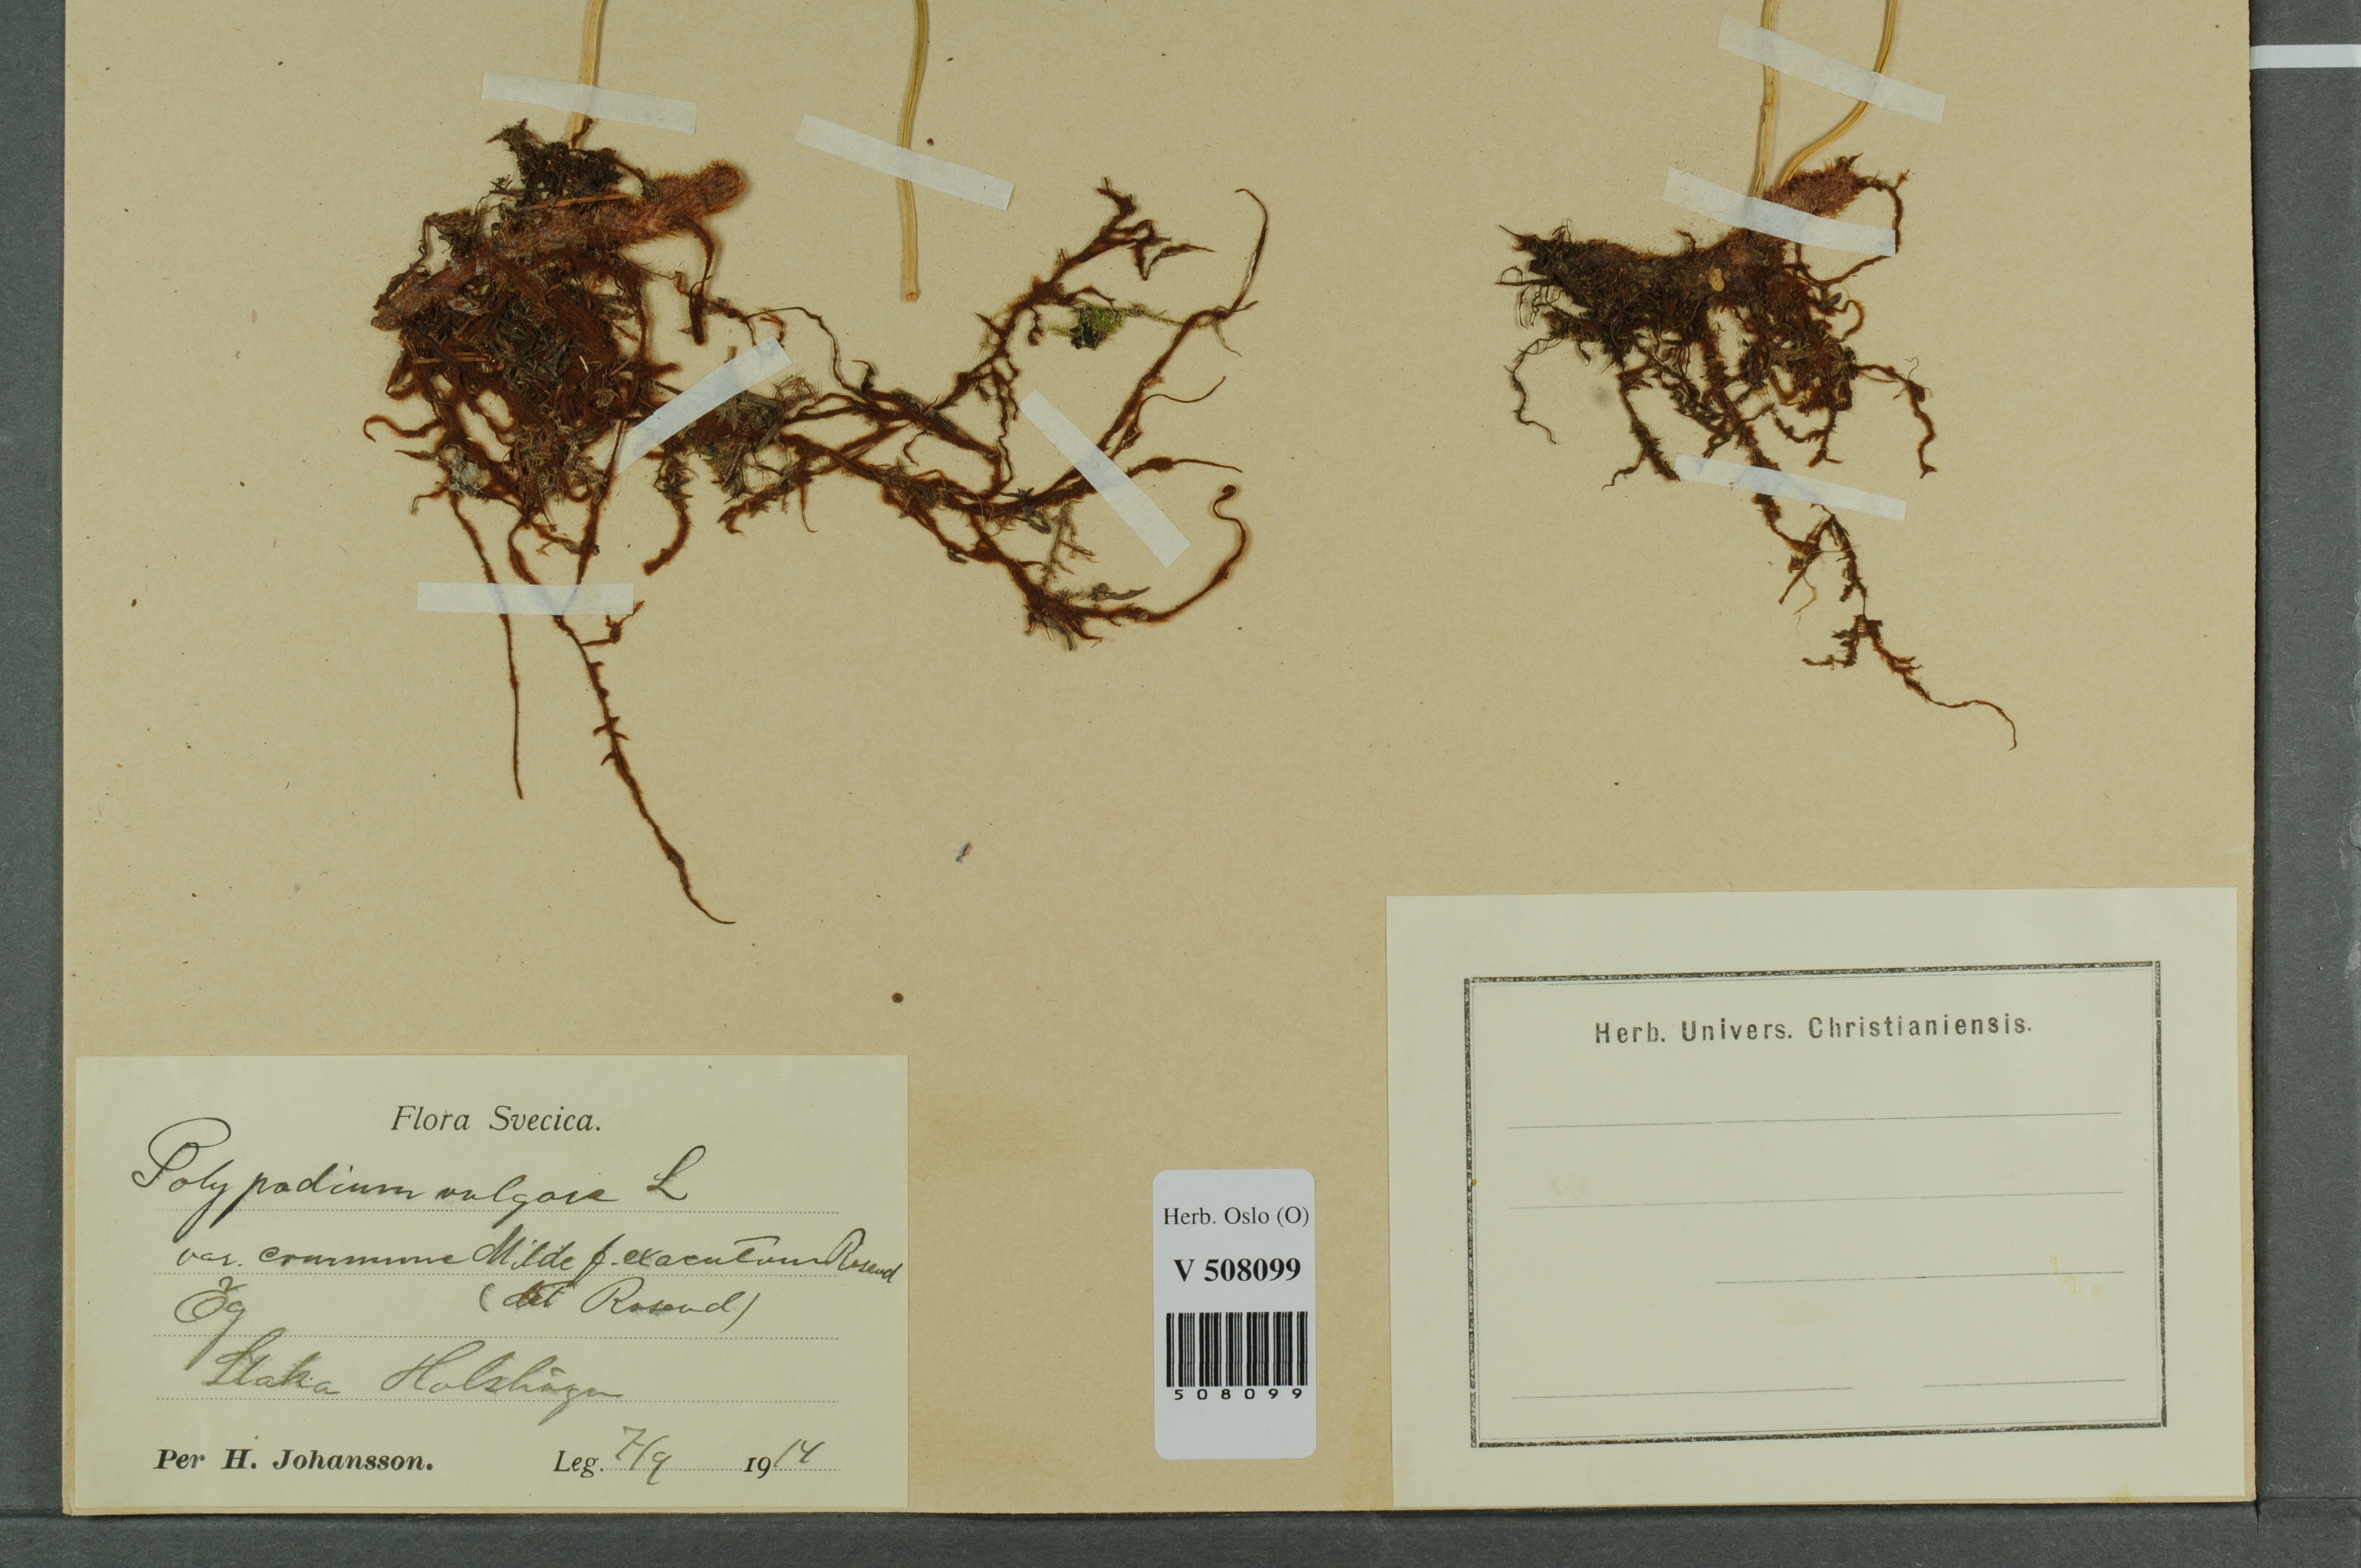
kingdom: Plantae
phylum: Tracheophyta
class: Polypodiopsida
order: Polypodiales
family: Polypodiaceae
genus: Polypodium
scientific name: Polypodium vulgare
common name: Common polypody
